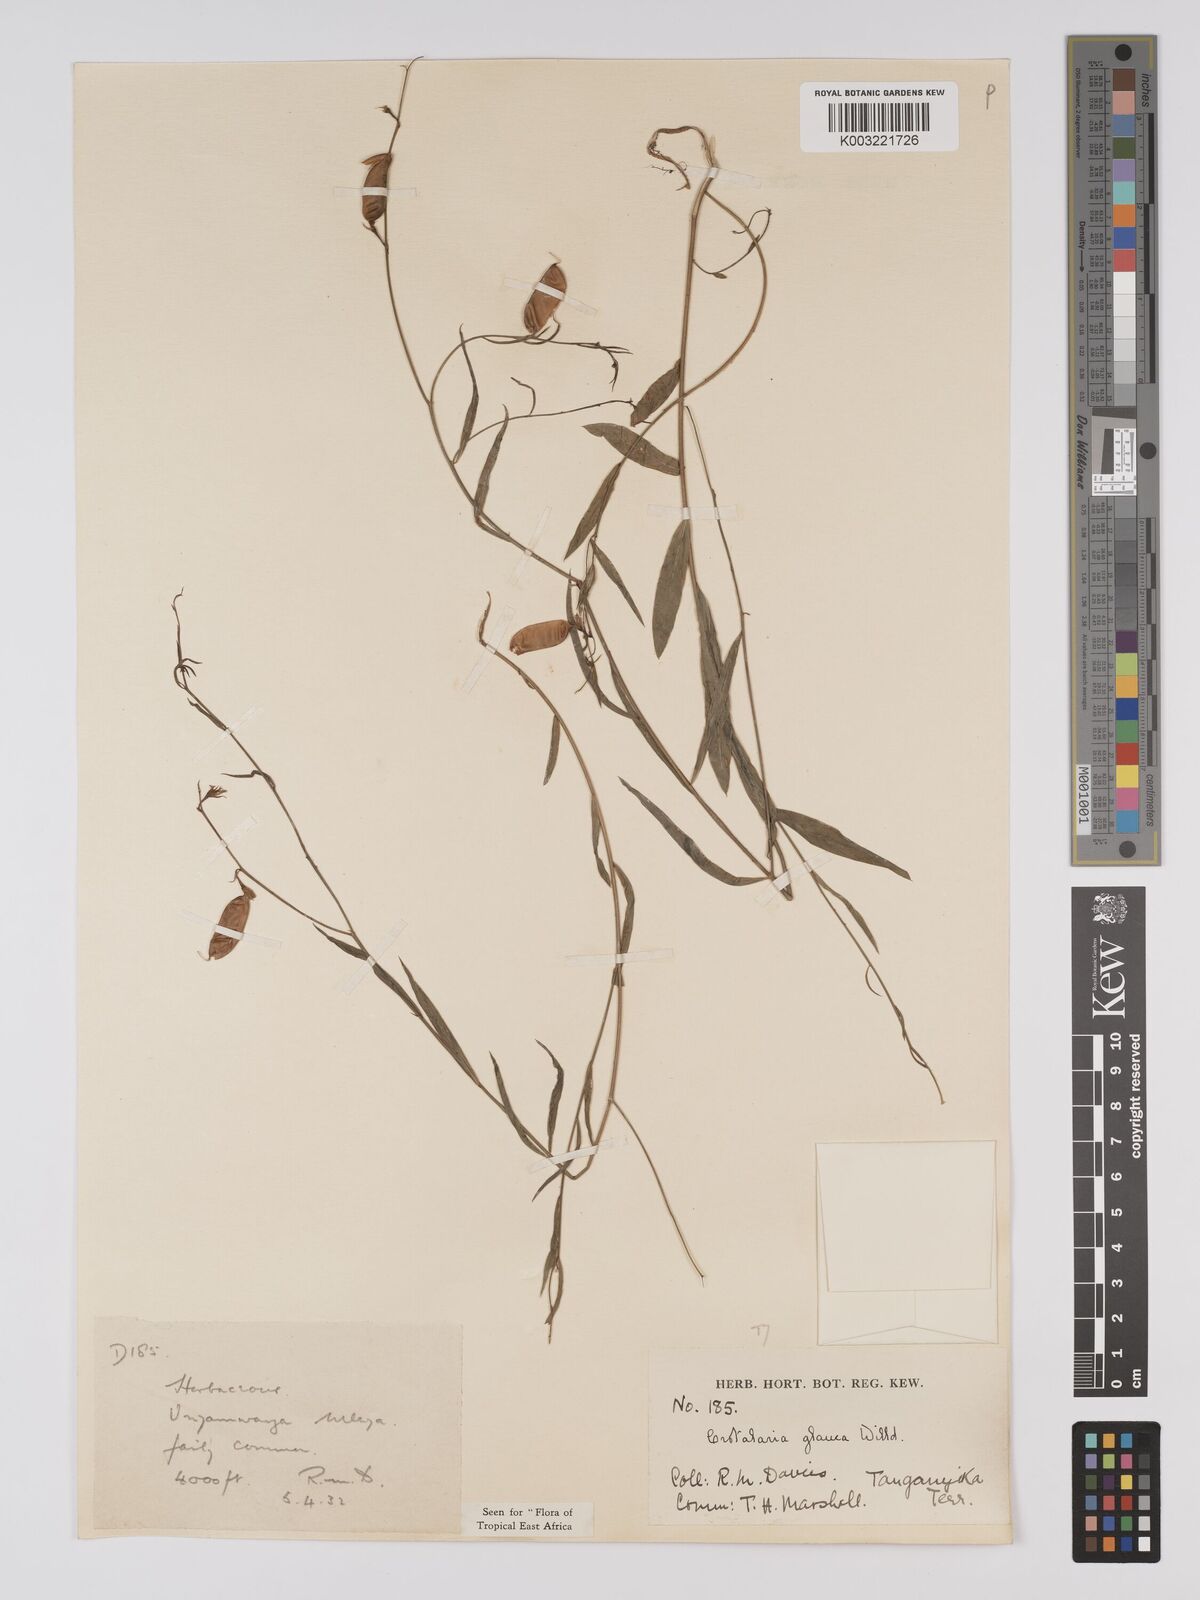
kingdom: Plantae
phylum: Tracheophyta
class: Magnoliopsida
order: Fabales
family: Fabaceae
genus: Crotalaria
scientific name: Crotalaria glauca
